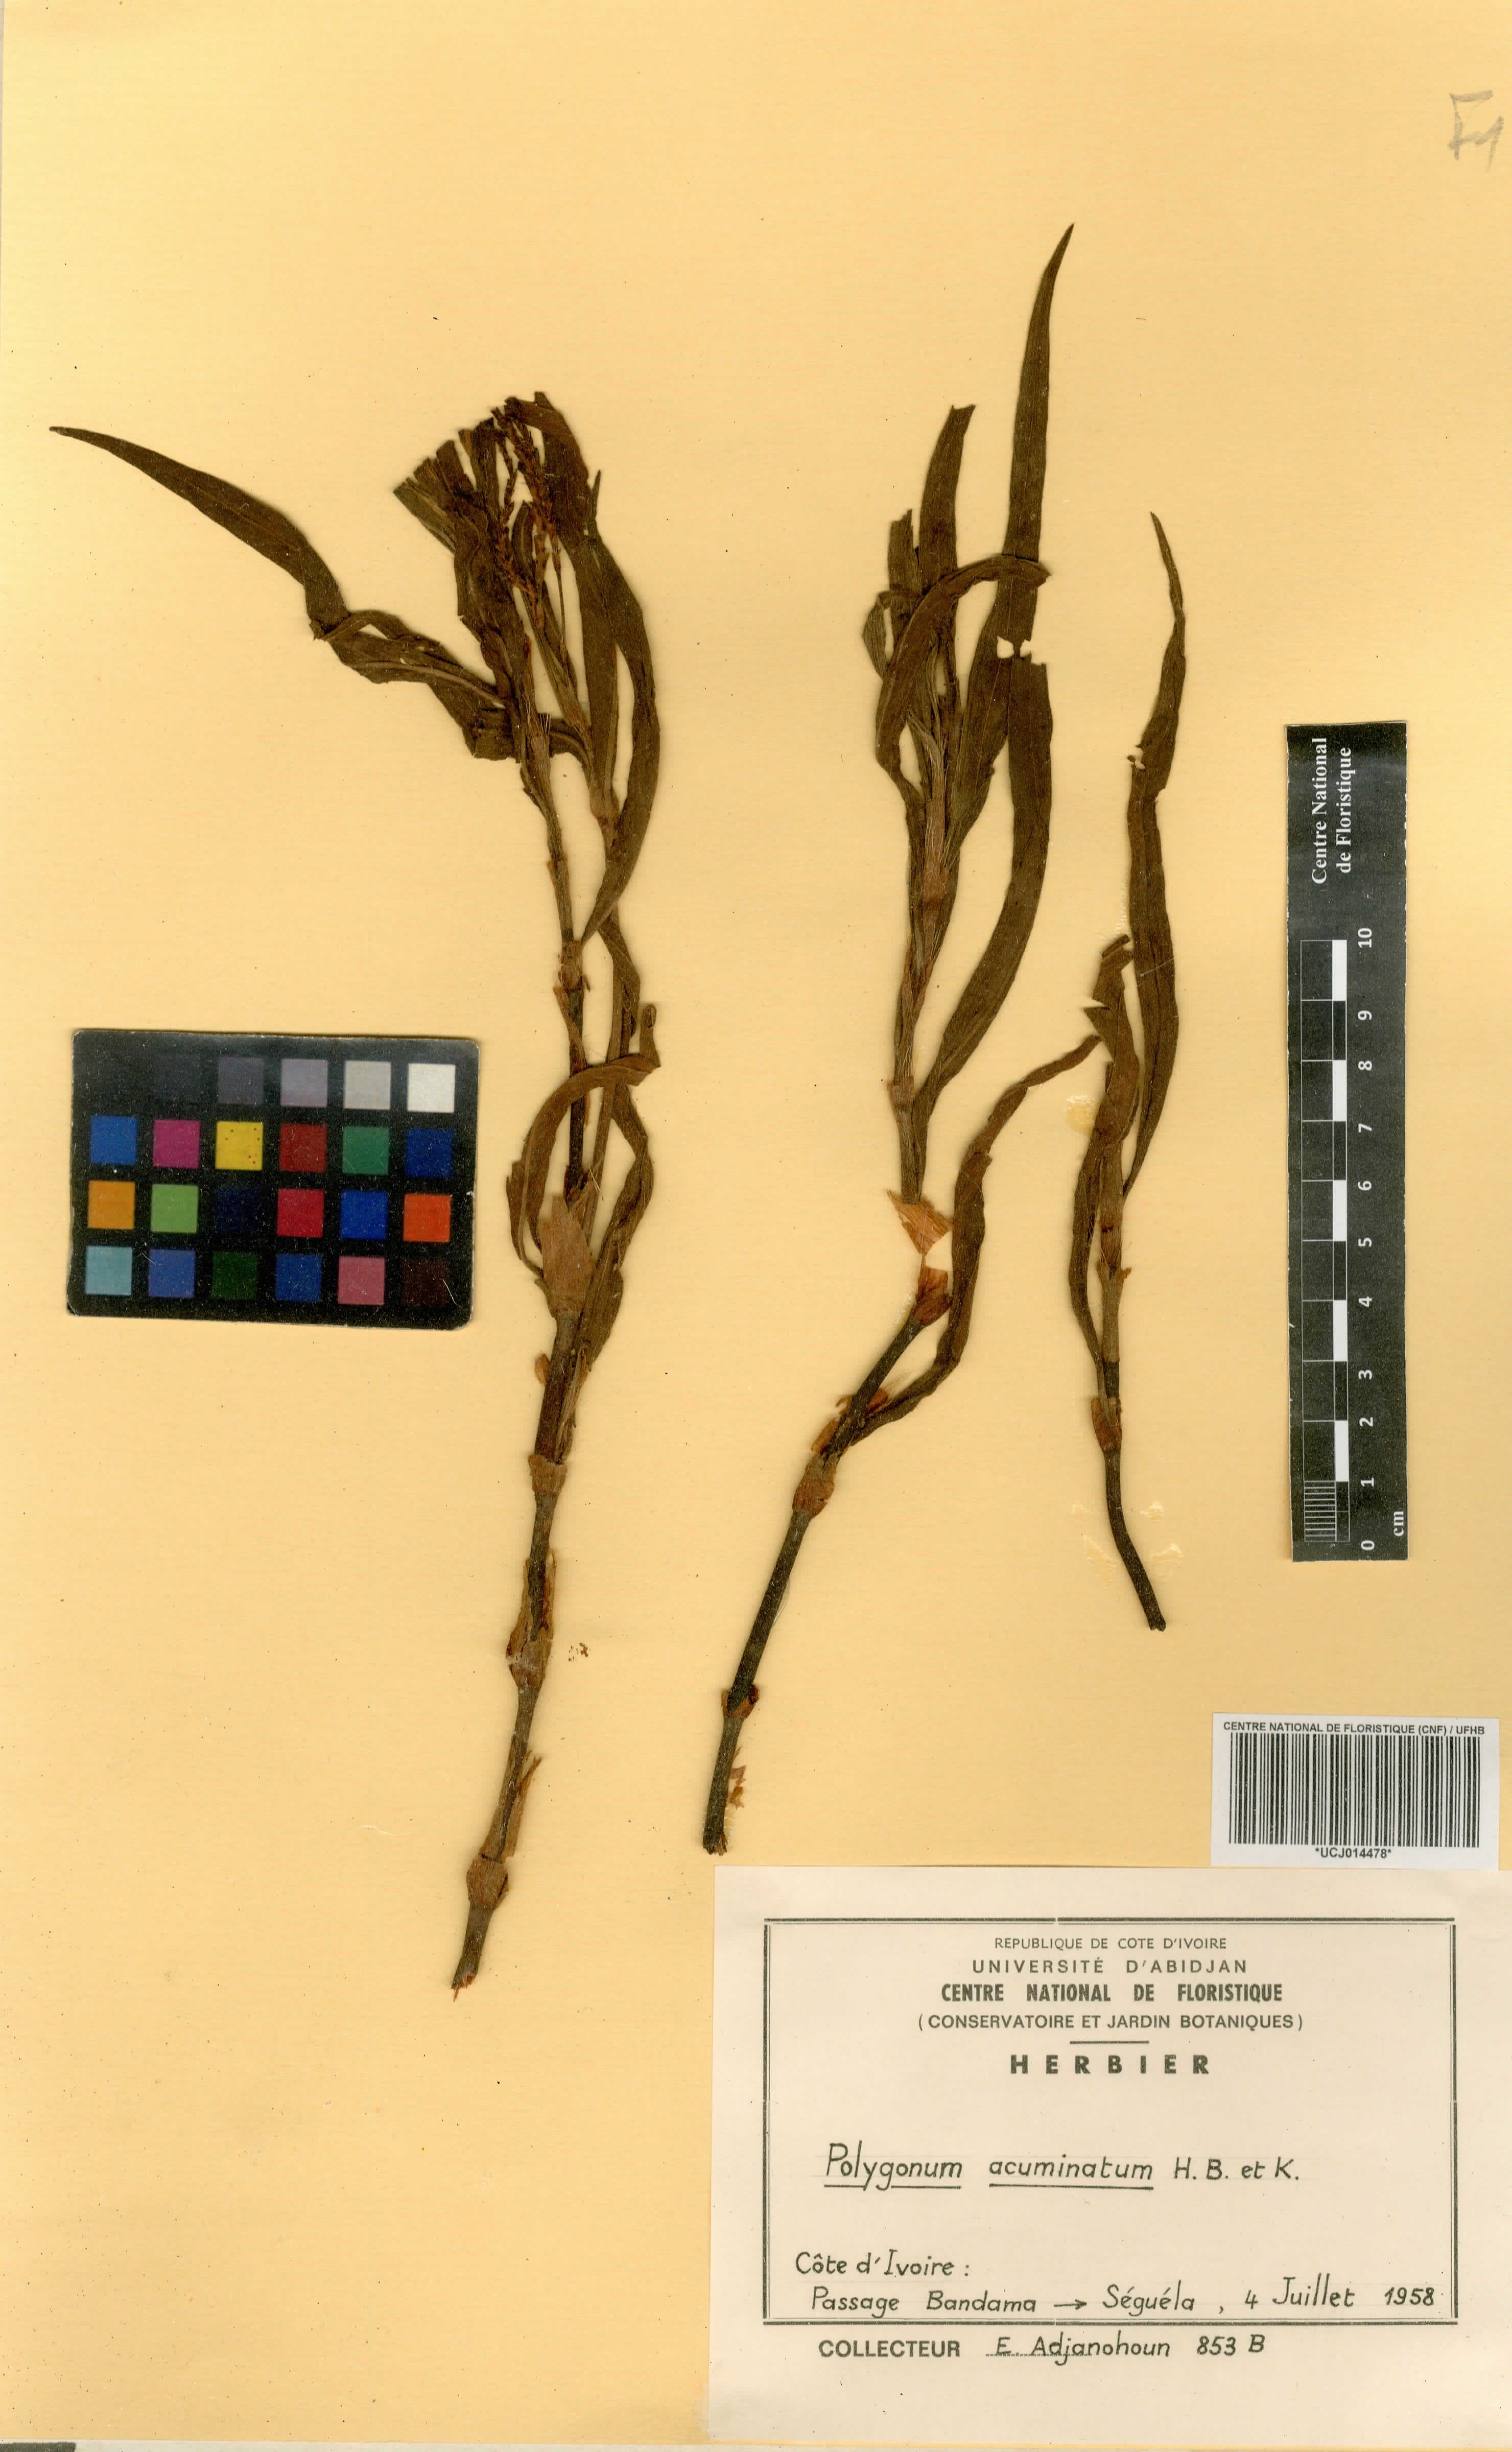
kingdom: Plantae
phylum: Tracheophyta
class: Magnoliopsida
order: Caryophyllales
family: Polygonaceae
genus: Persicaria
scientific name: Persicaria acuminata
